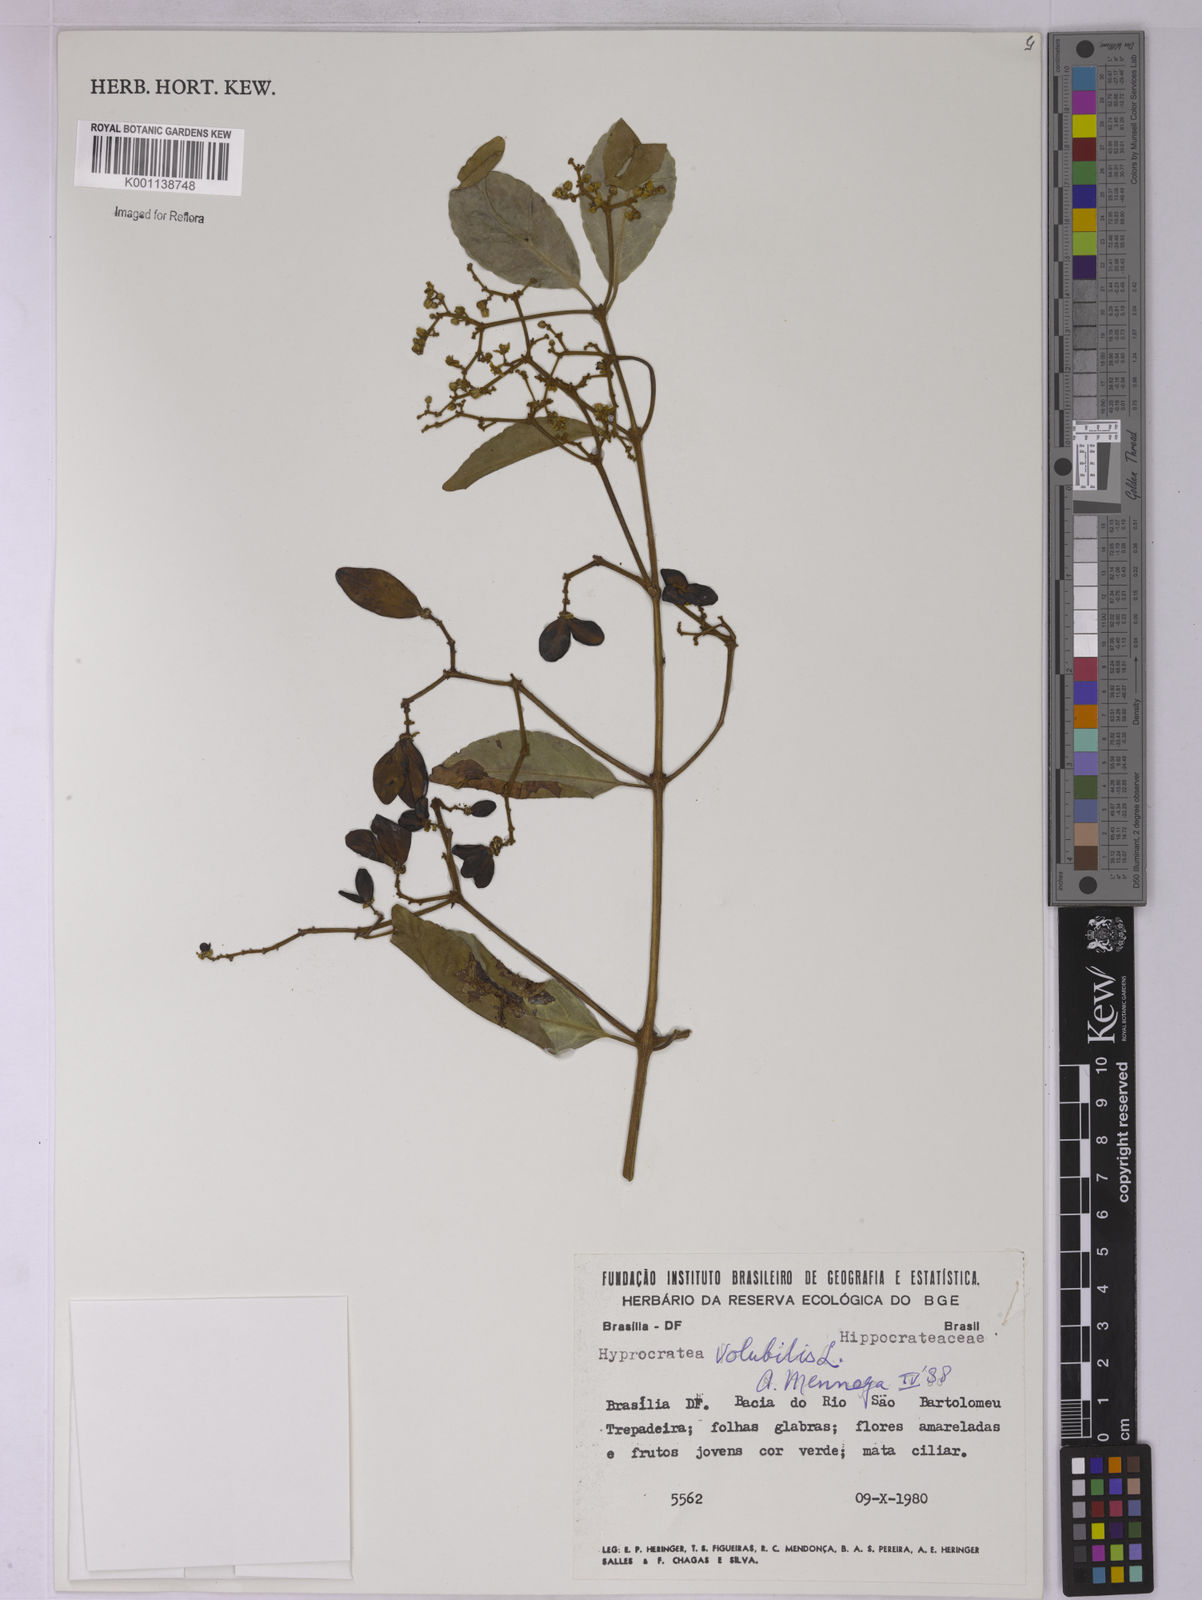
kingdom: Plantae
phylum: Tracheophyta
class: Magnoliopsida
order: Celastrales
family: Celastraceae
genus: Hippocratea
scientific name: Hippocratea volubilis
